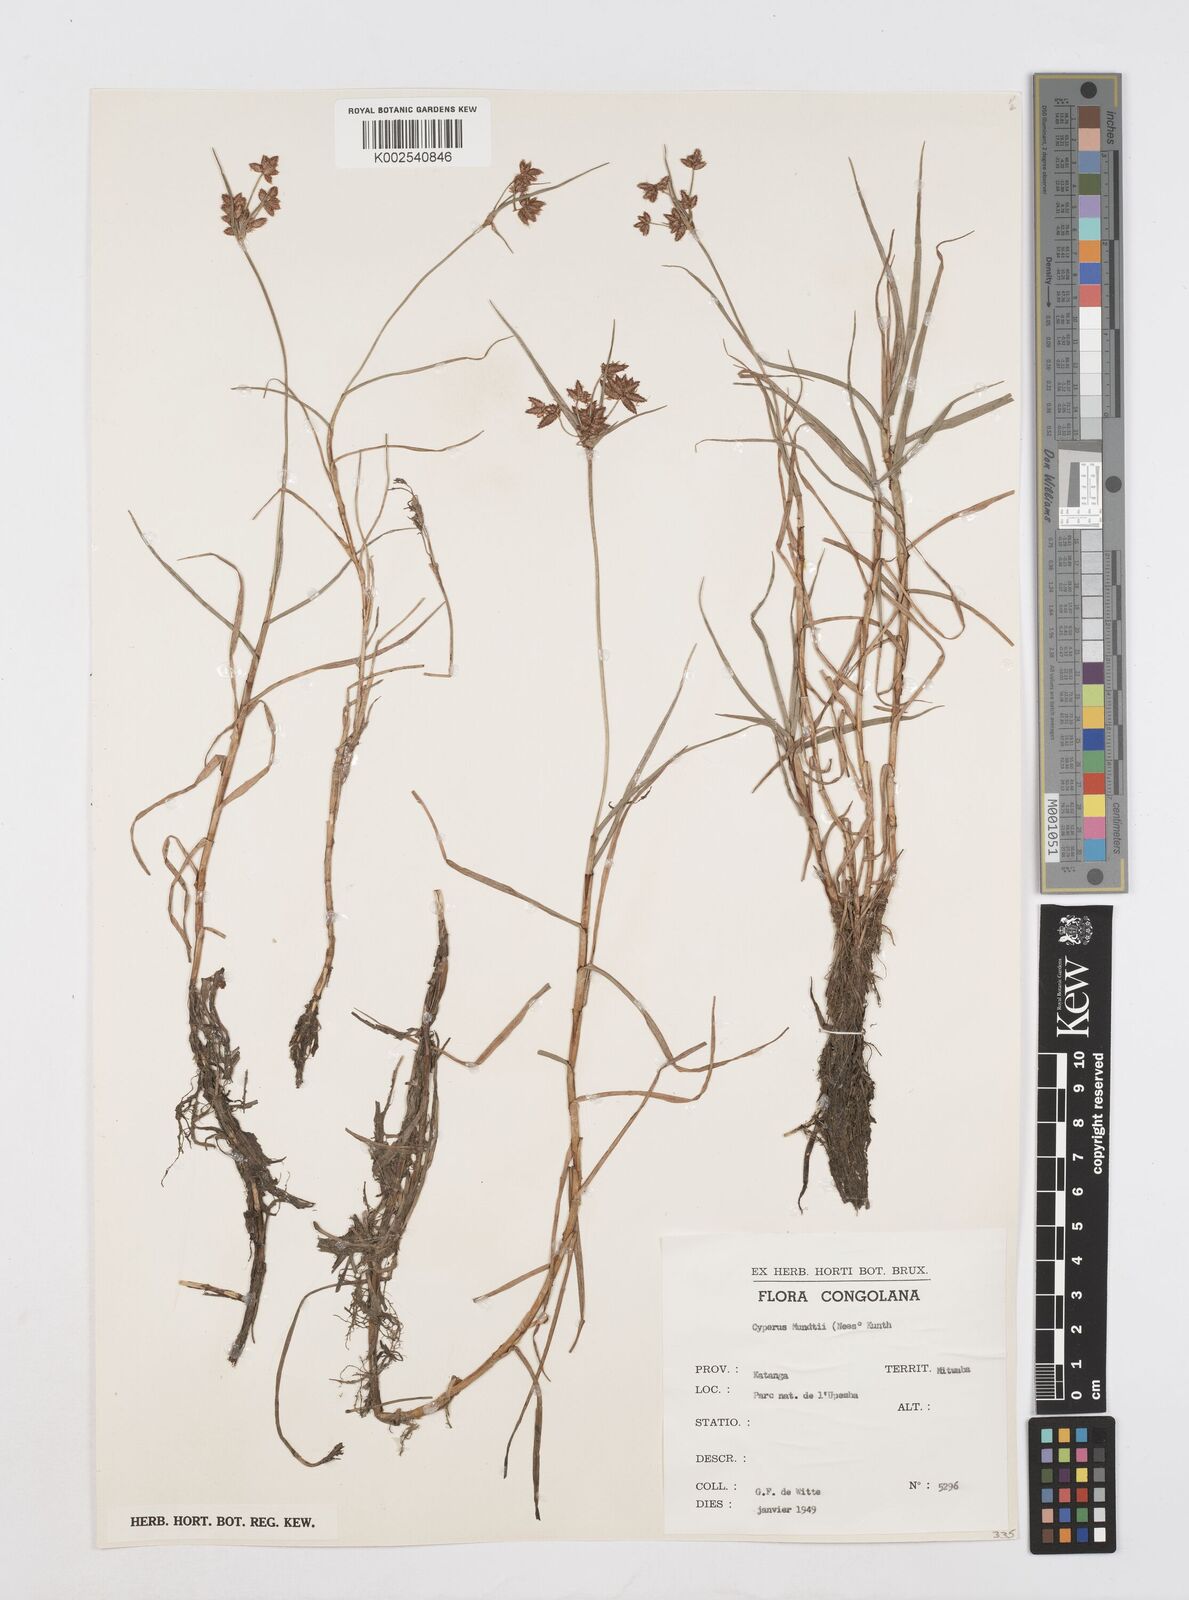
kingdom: Plantae
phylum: Tracheophyta
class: Liliopsida
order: Poales
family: Cyperaceae
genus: Cyperus
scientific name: Cyperus mundii
